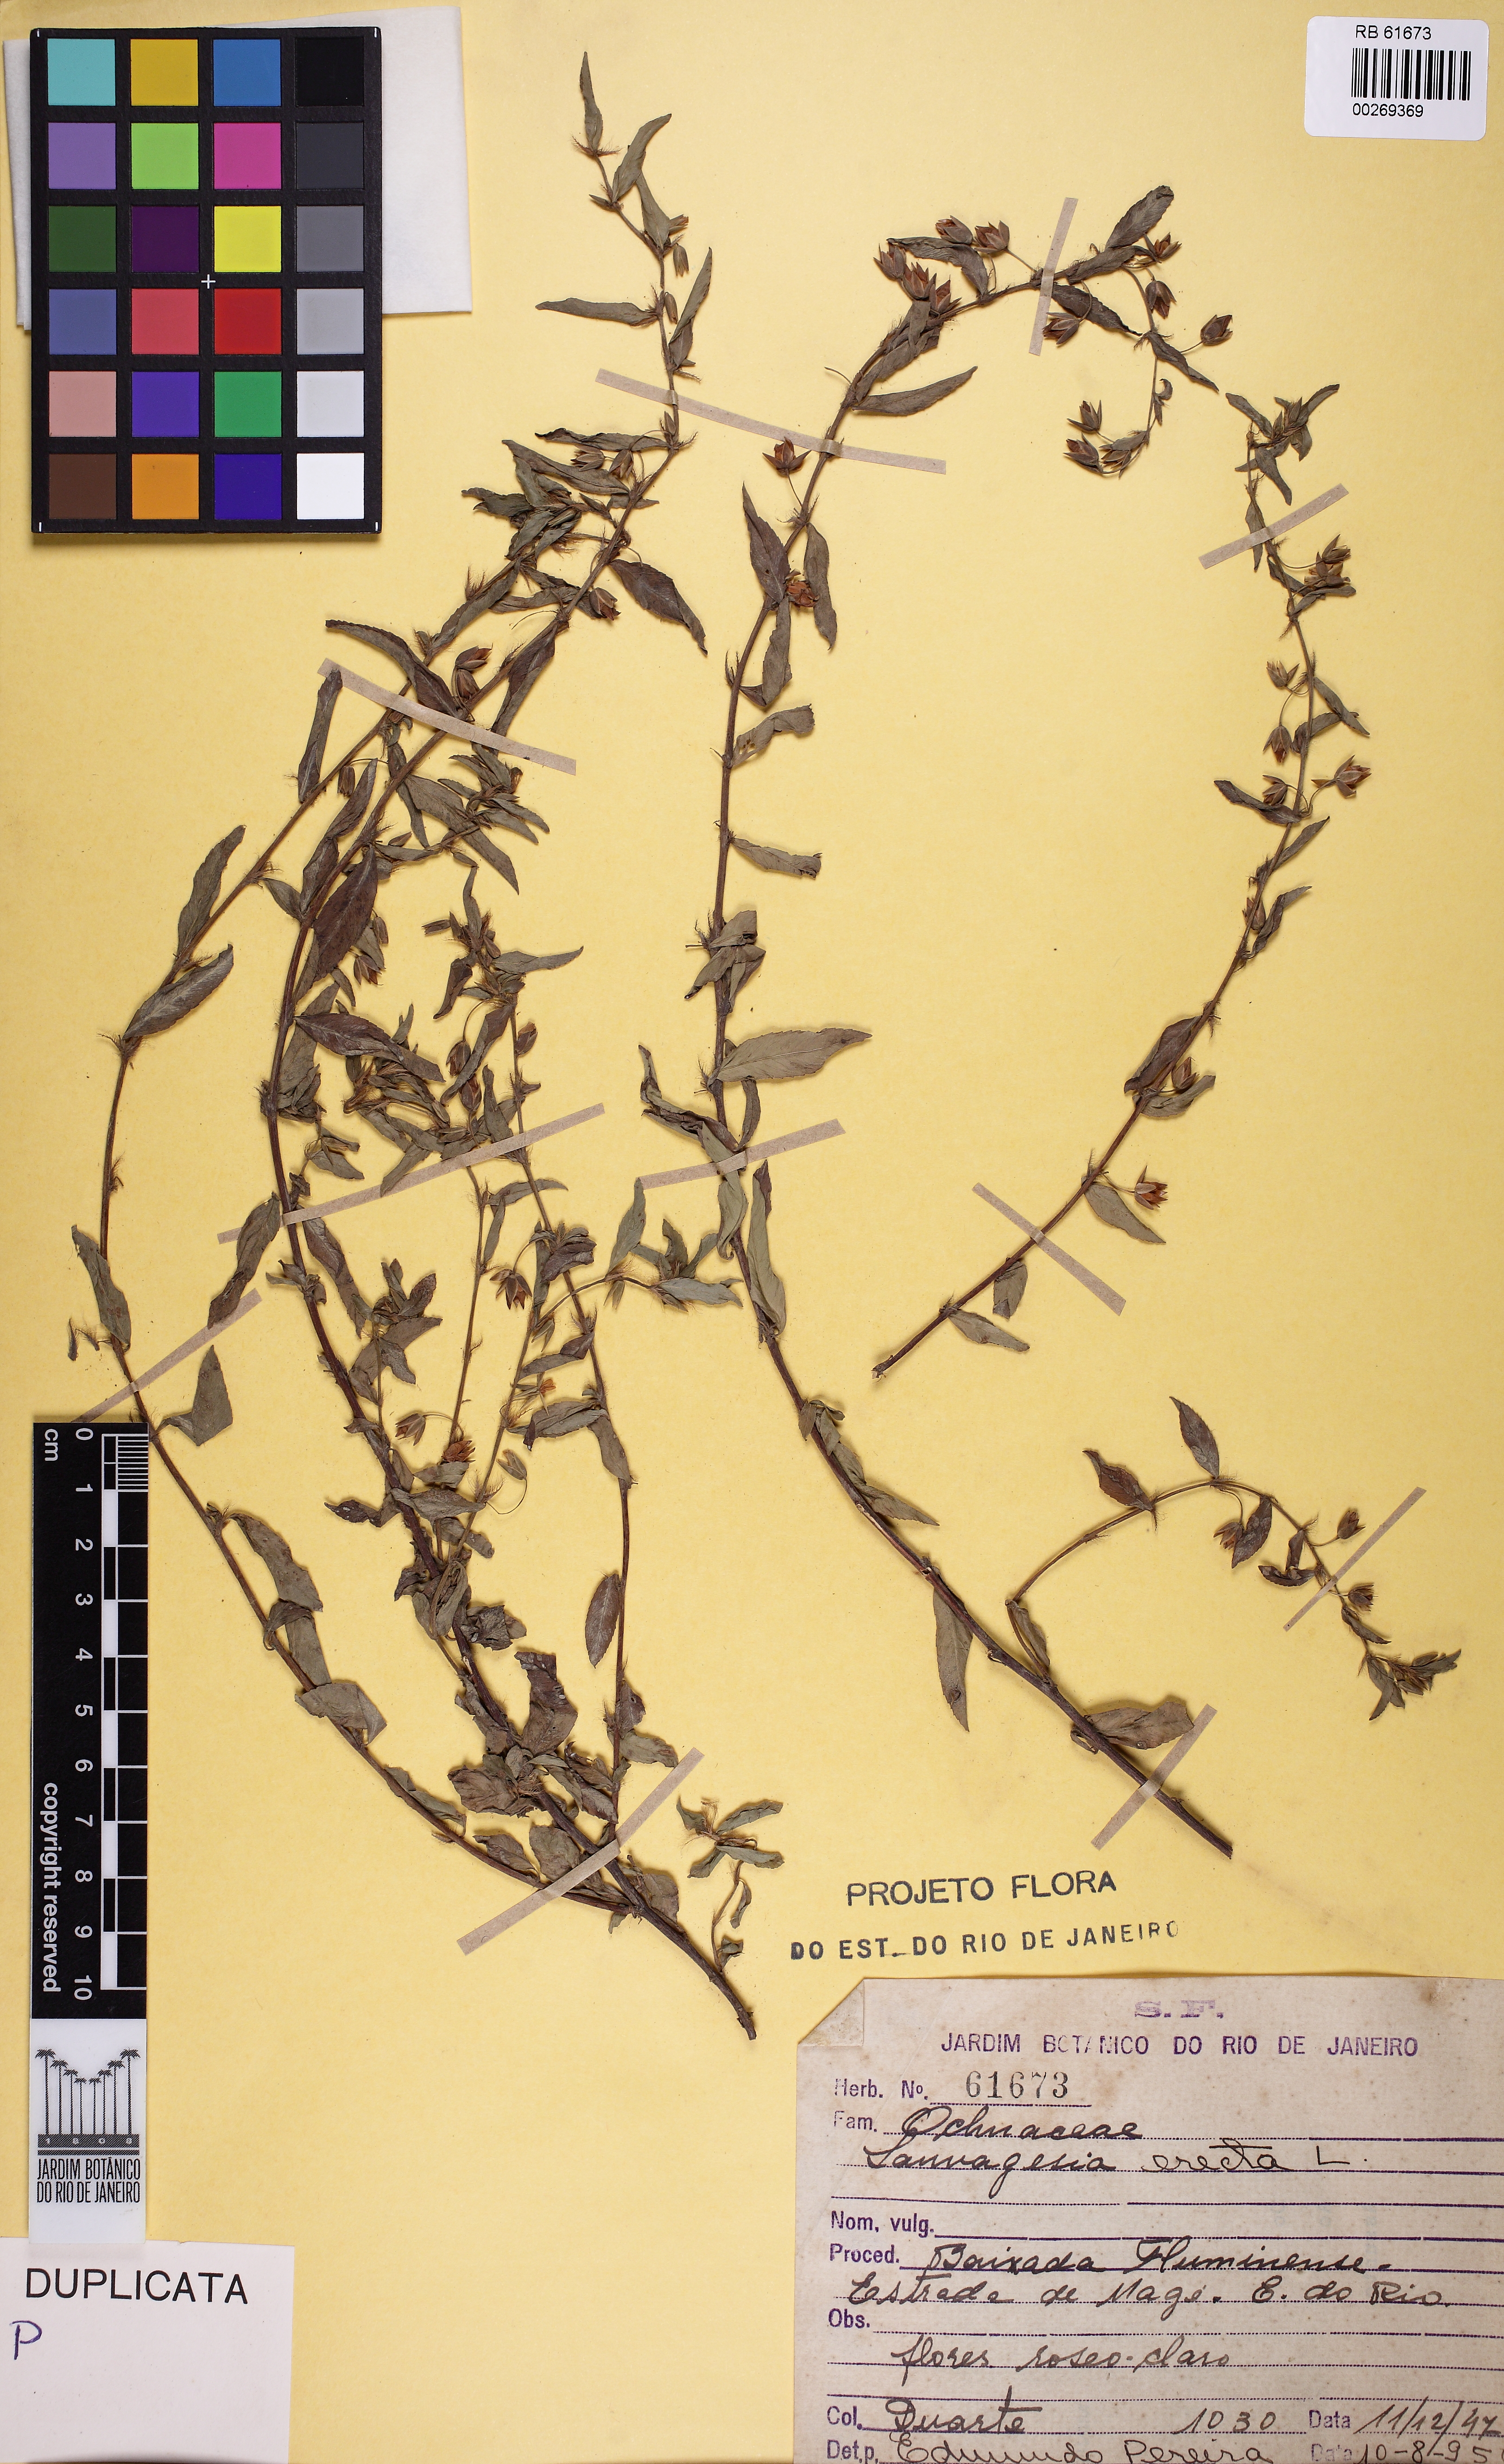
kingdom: Plantae
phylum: Tracheophyta
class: Magnoliopsida
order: Malpighiales
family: Ochnaceae
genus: Sauvagesia
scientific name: Sauvagesia erecta
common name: Creole tea
